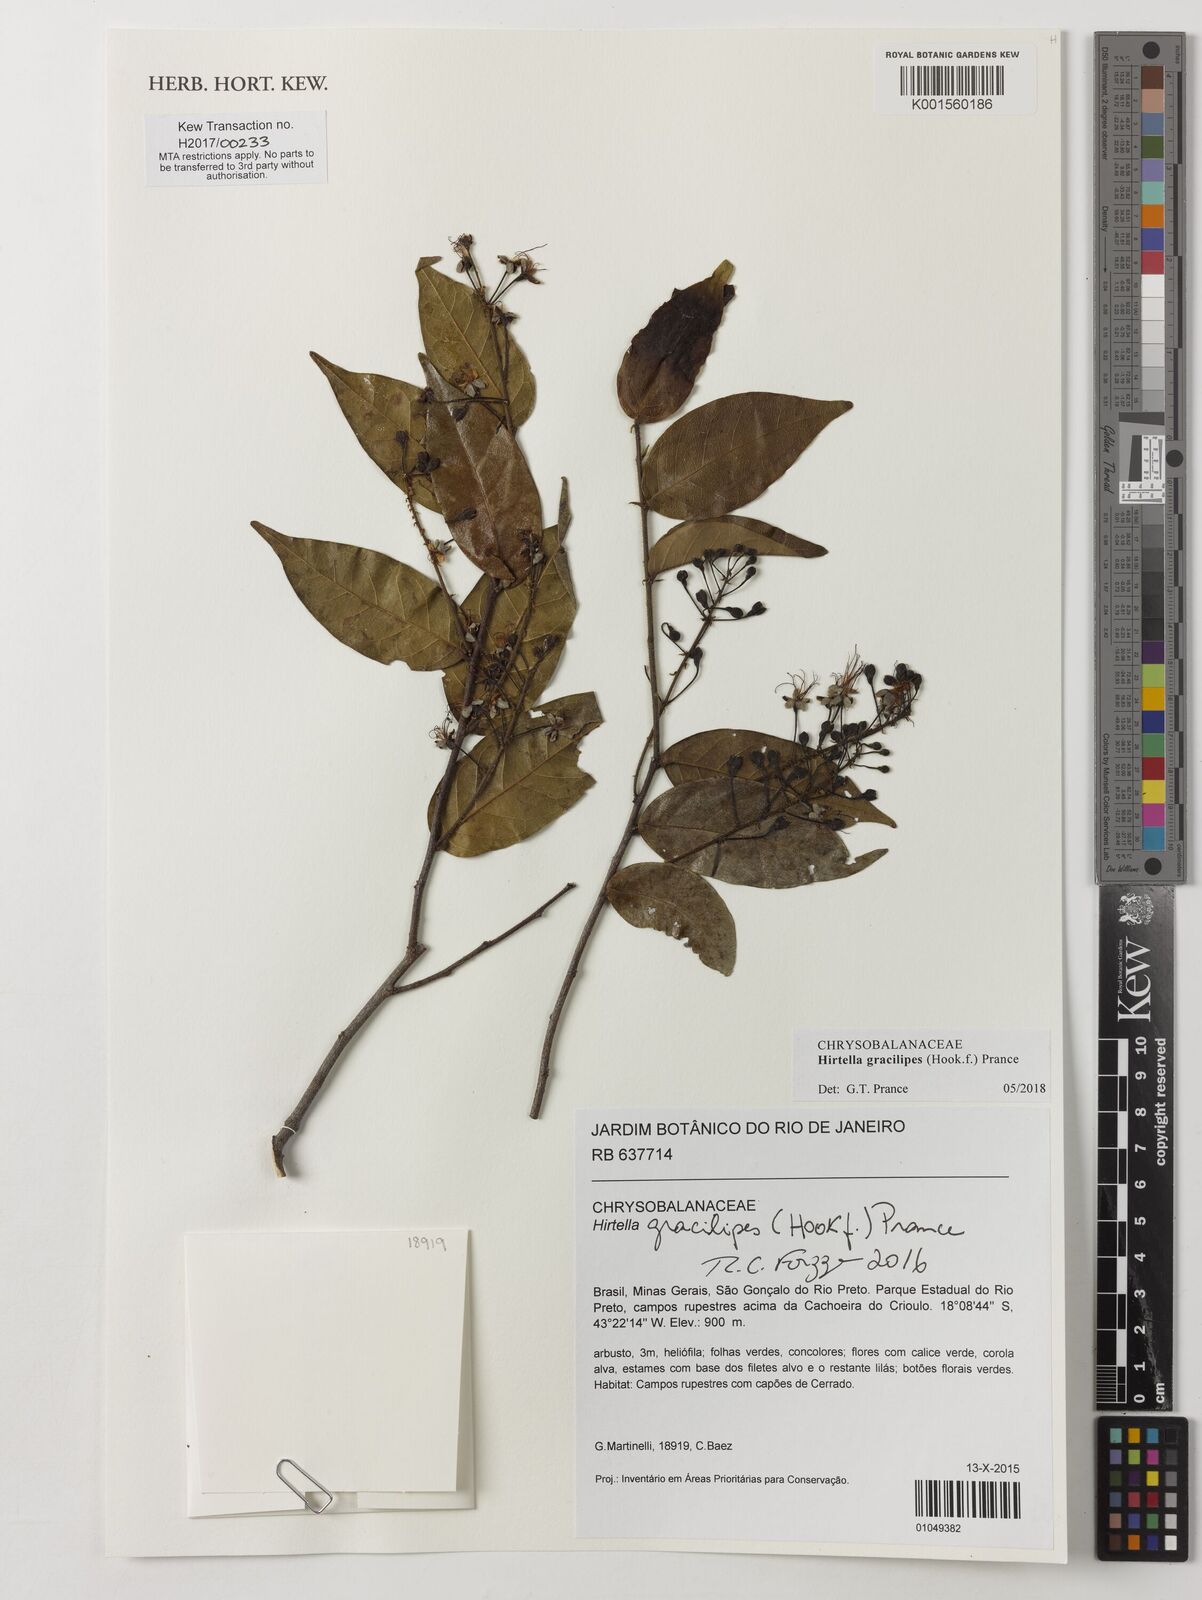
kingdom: Plantae
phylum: Tracheophyta
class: Magnoliopsida
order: Malpighiales
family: Chrysobalanaceae
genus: Hirtella
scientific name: Hirtella gracilipes
